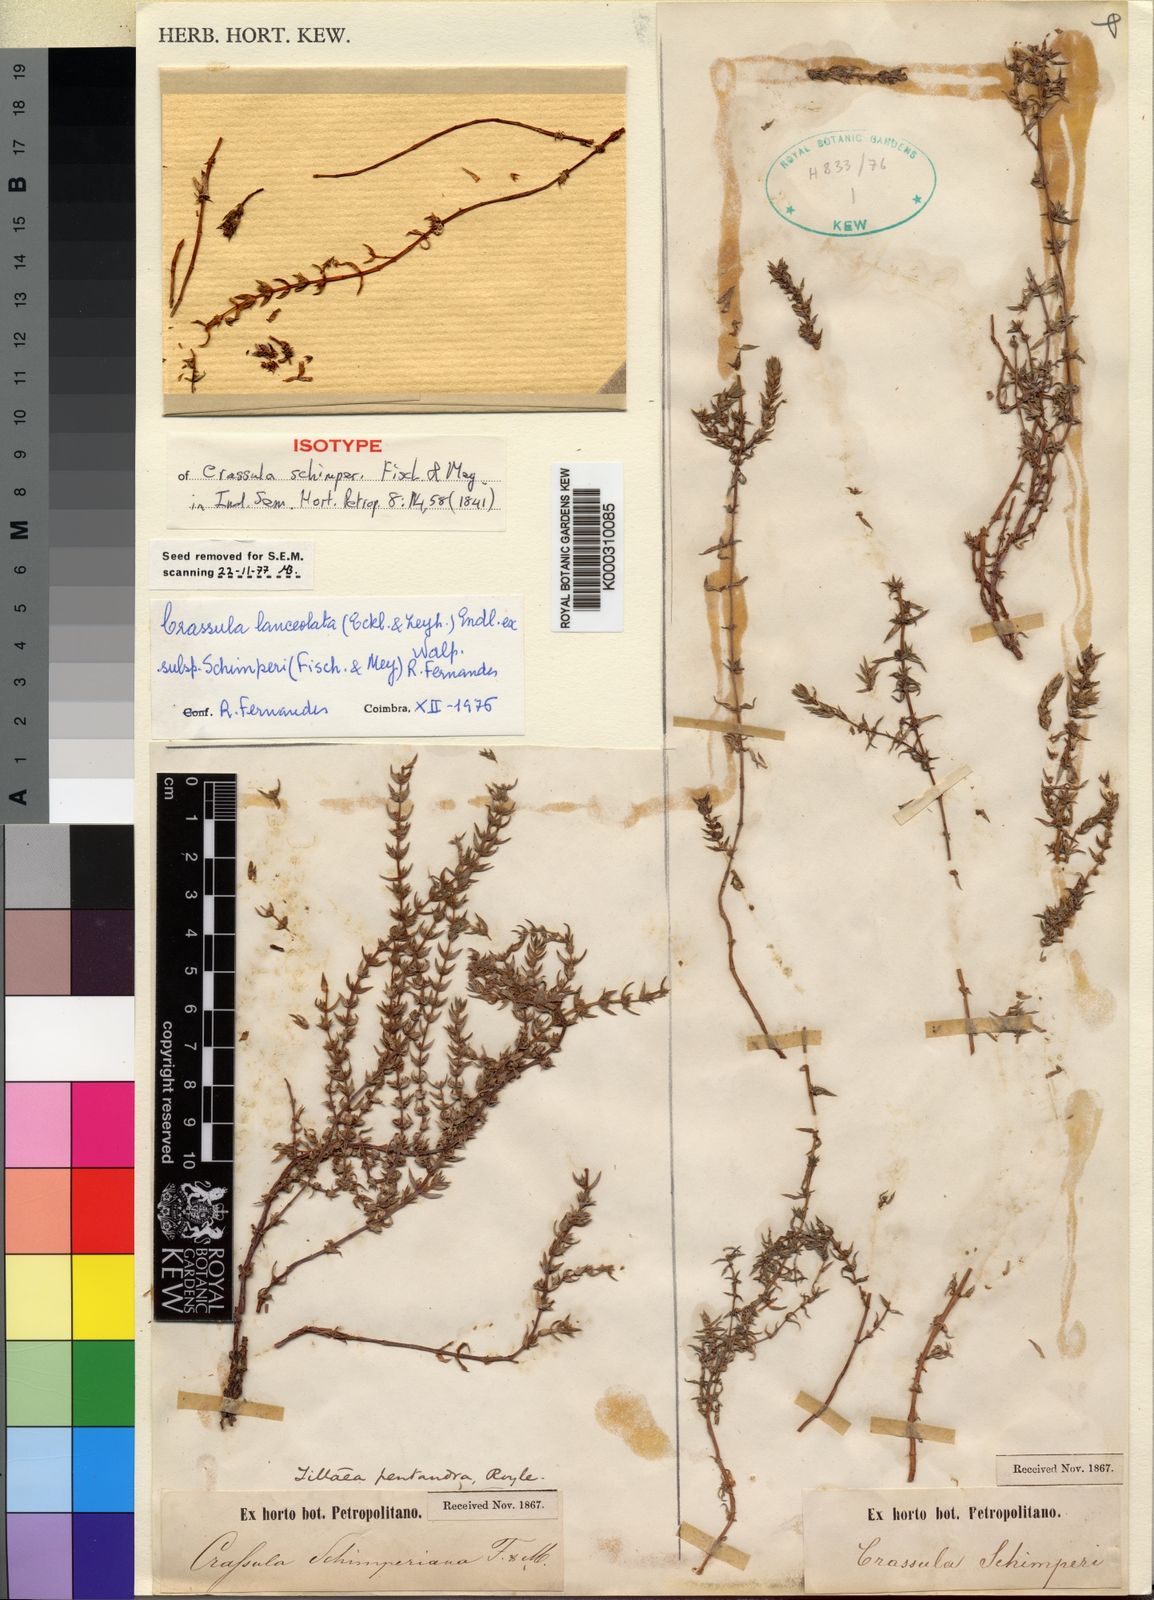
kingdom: Plantae
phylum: Tracheophyta
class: Magnoliopsida
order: Saxifragales
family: Crassulaceae
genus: Crassula
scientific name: Crassula schimperi
